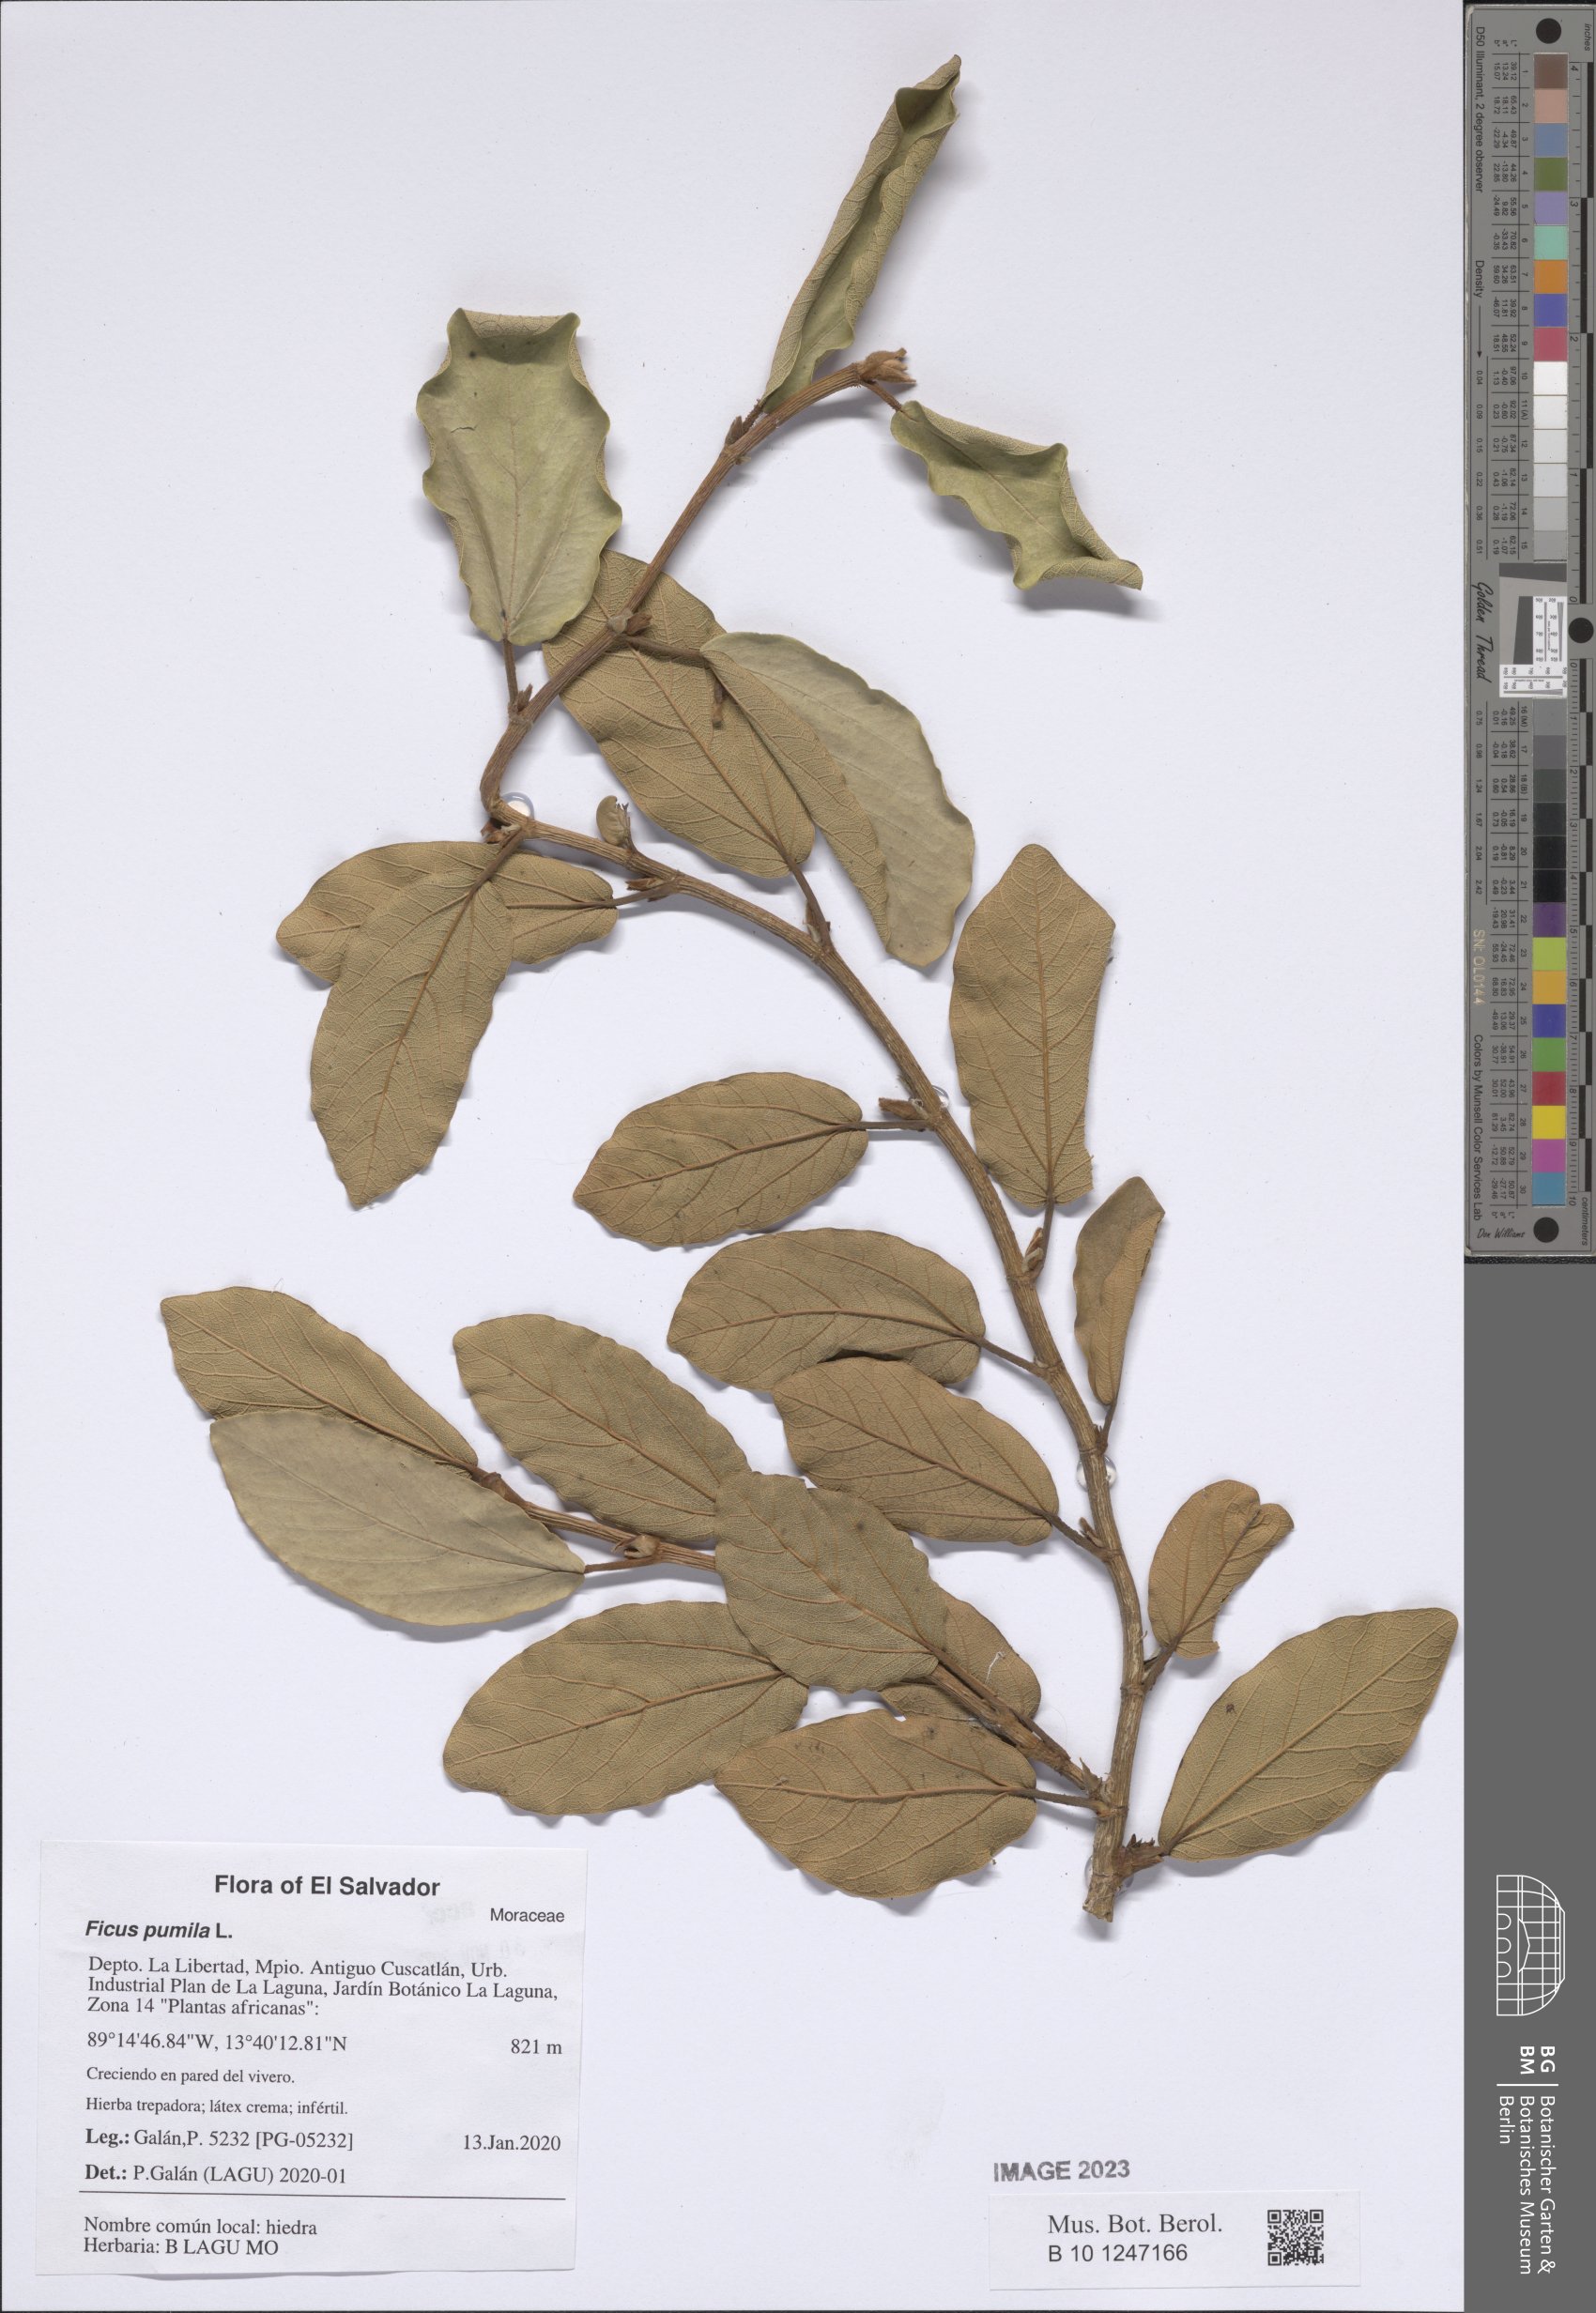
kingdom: Plantae
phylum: Tracheophyta
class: Magnoliopsida
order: Rosales
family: Moraceae
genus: Ficus
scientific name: Ficus pumila
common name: Climbingfig
